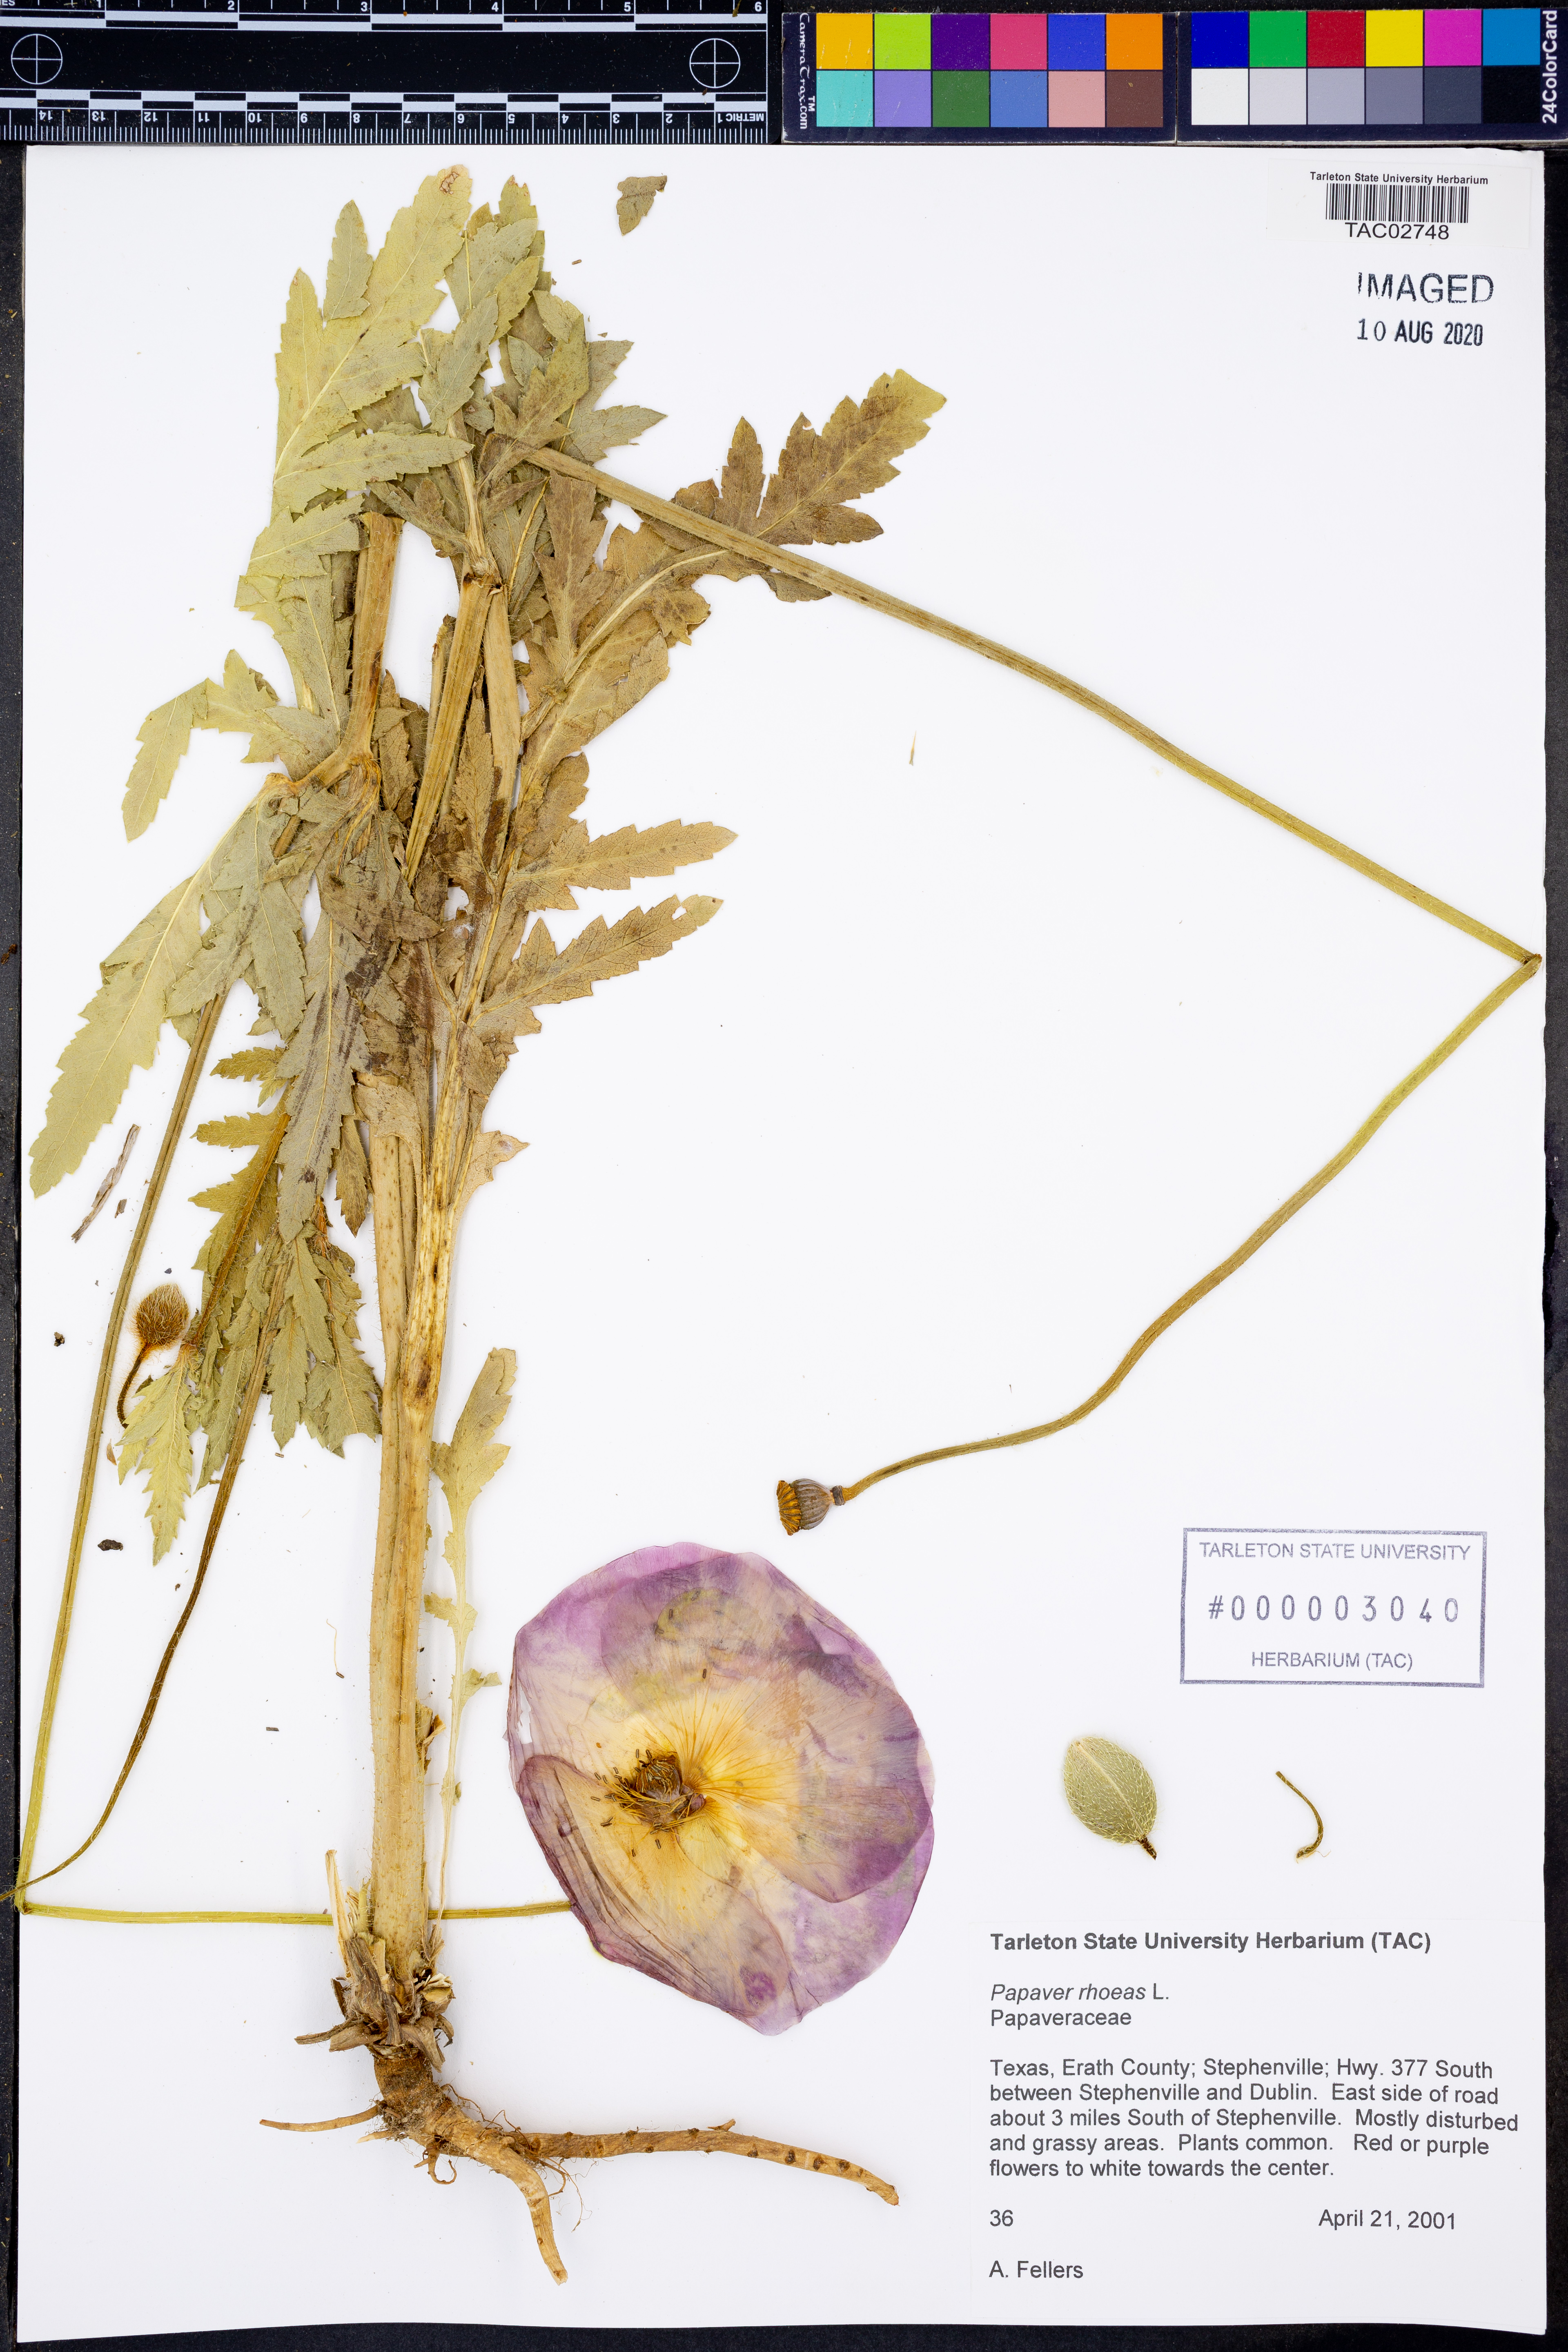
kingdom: Plantae
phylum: Tracheophyta
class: Magnoliopsida
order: Ranunculales
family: Papaveraceae
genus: Papaver
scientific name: Papaver rhoeas
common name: Corn poppy
